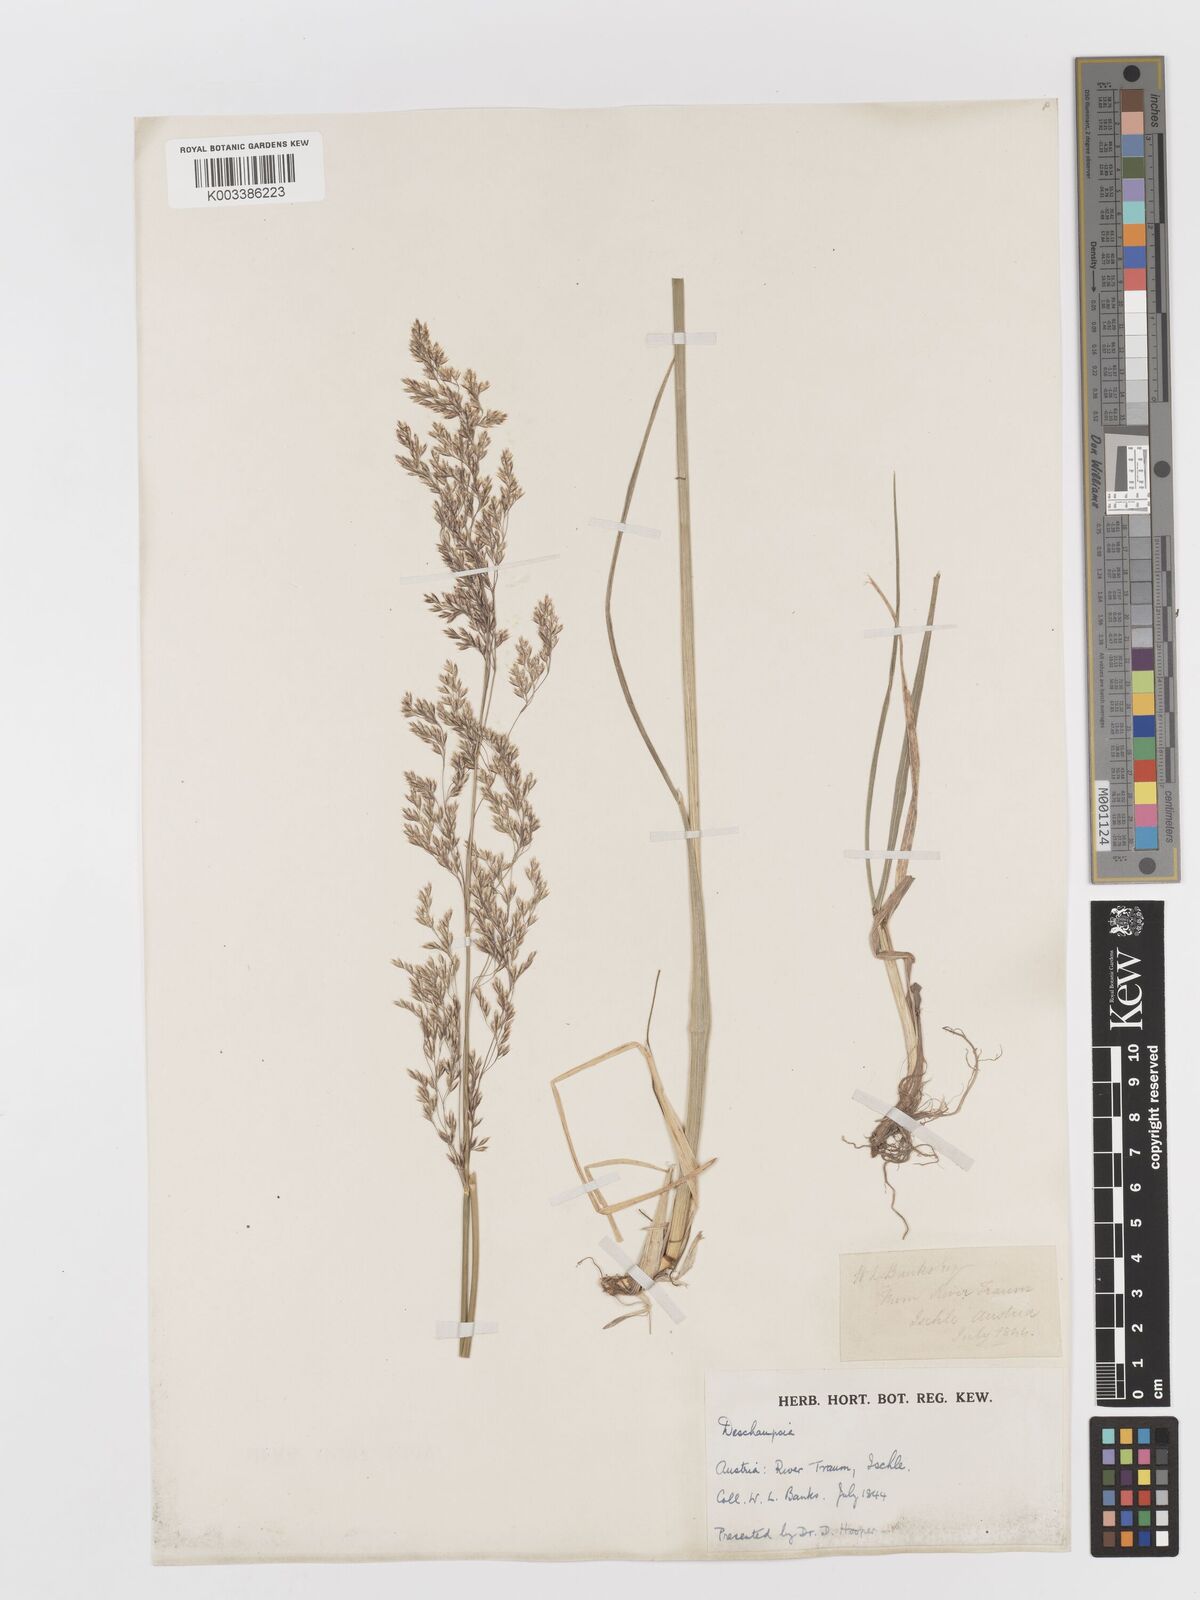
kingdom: Plantae
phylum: Tracheophyta
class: Liliopsida
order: Poales
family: Poaceae
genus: Deschampsia
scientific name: Deschampsia
